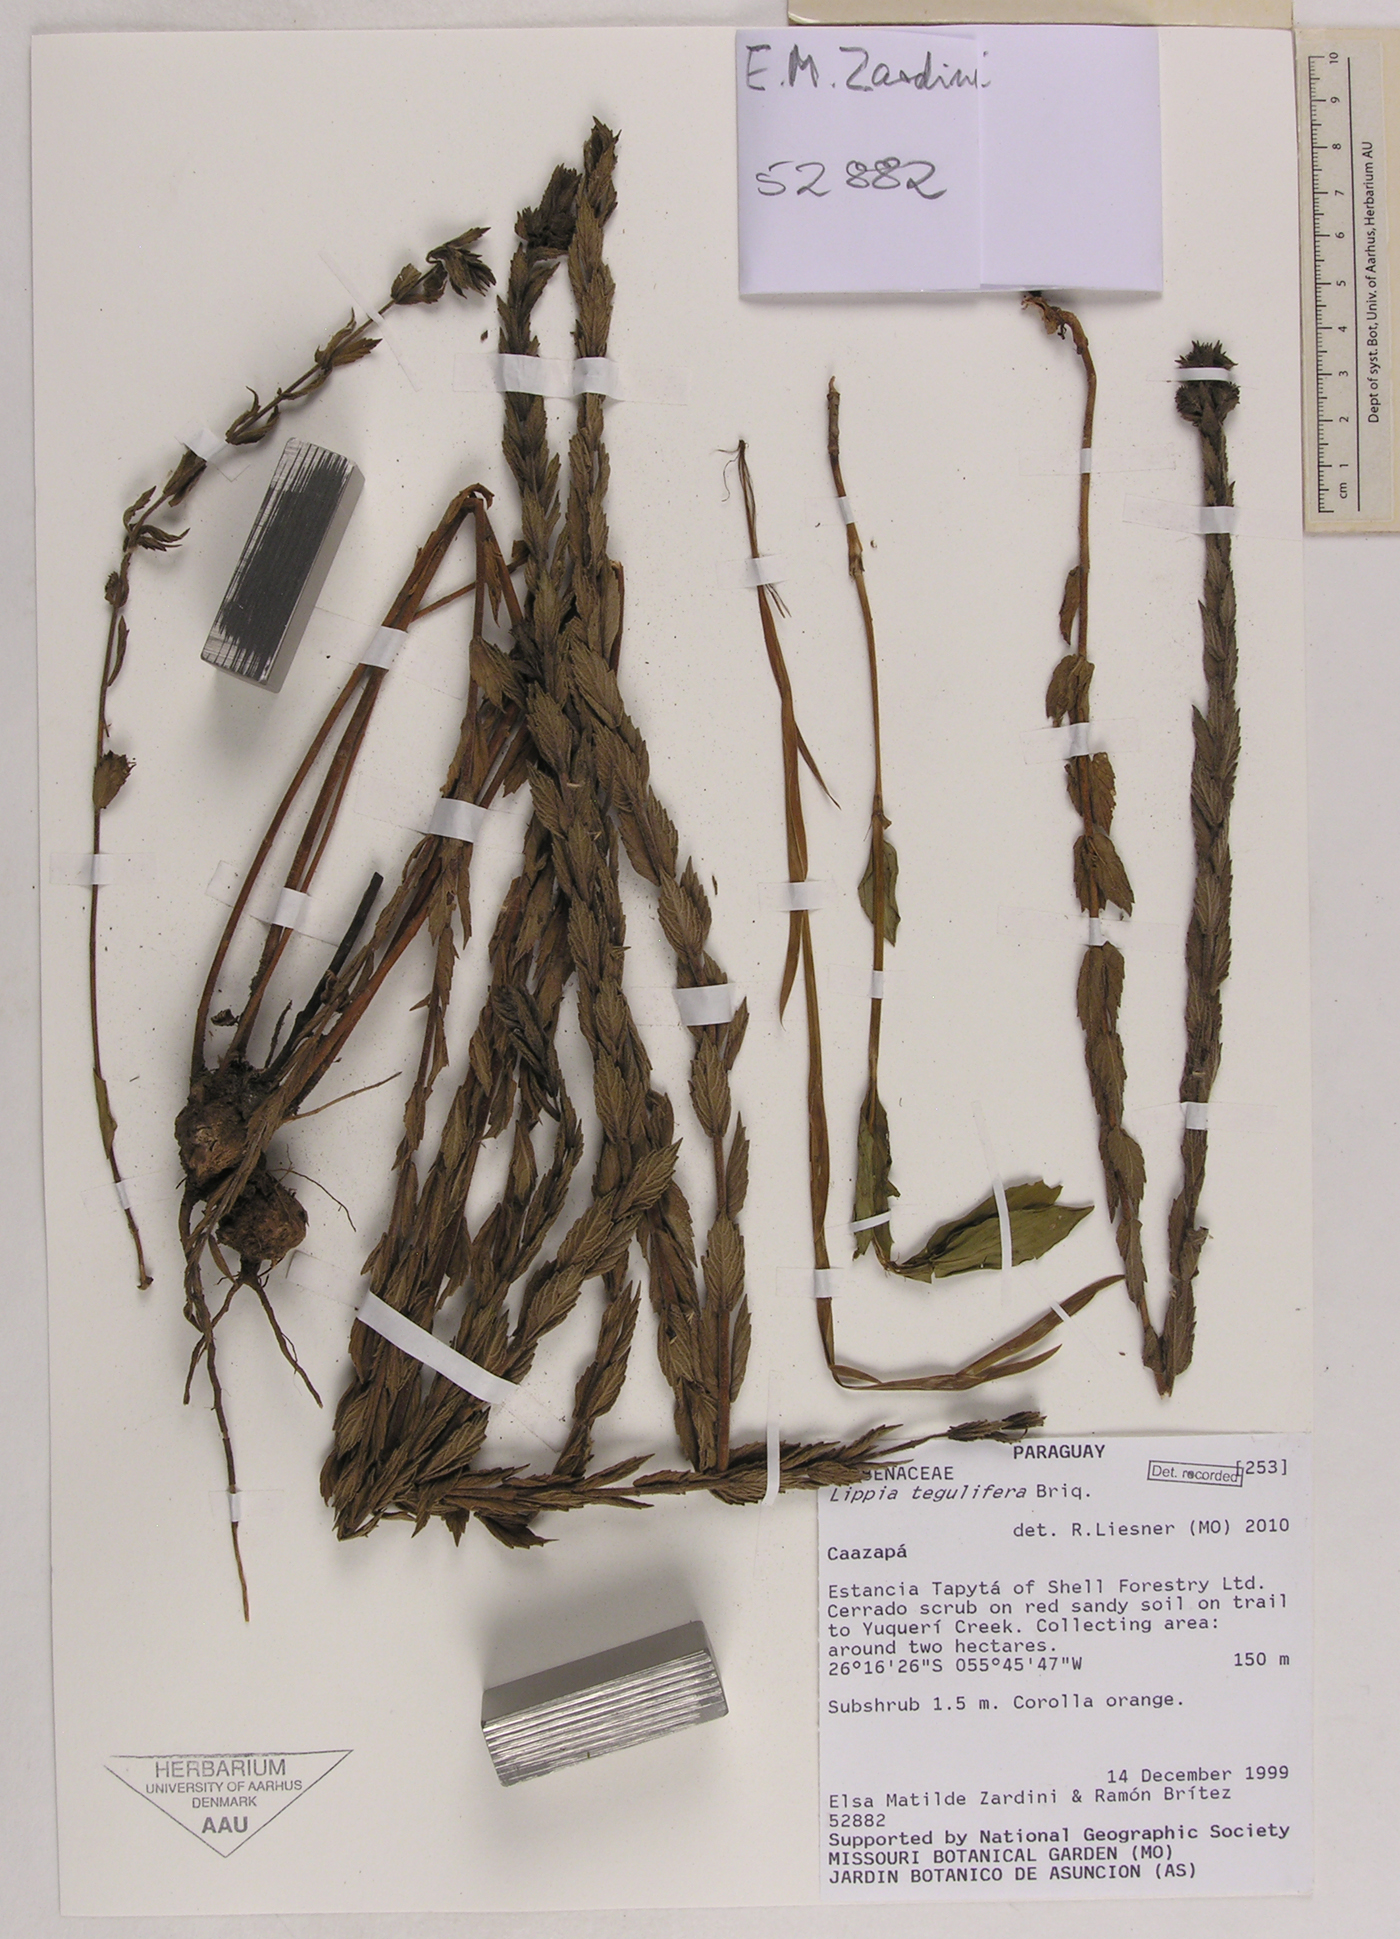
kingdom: Plantae
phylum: Tracheophyta
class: Magnoliopsida
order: Lamiales
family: Verbenaceae
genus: Lippia
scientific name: Lippia tegulifera
